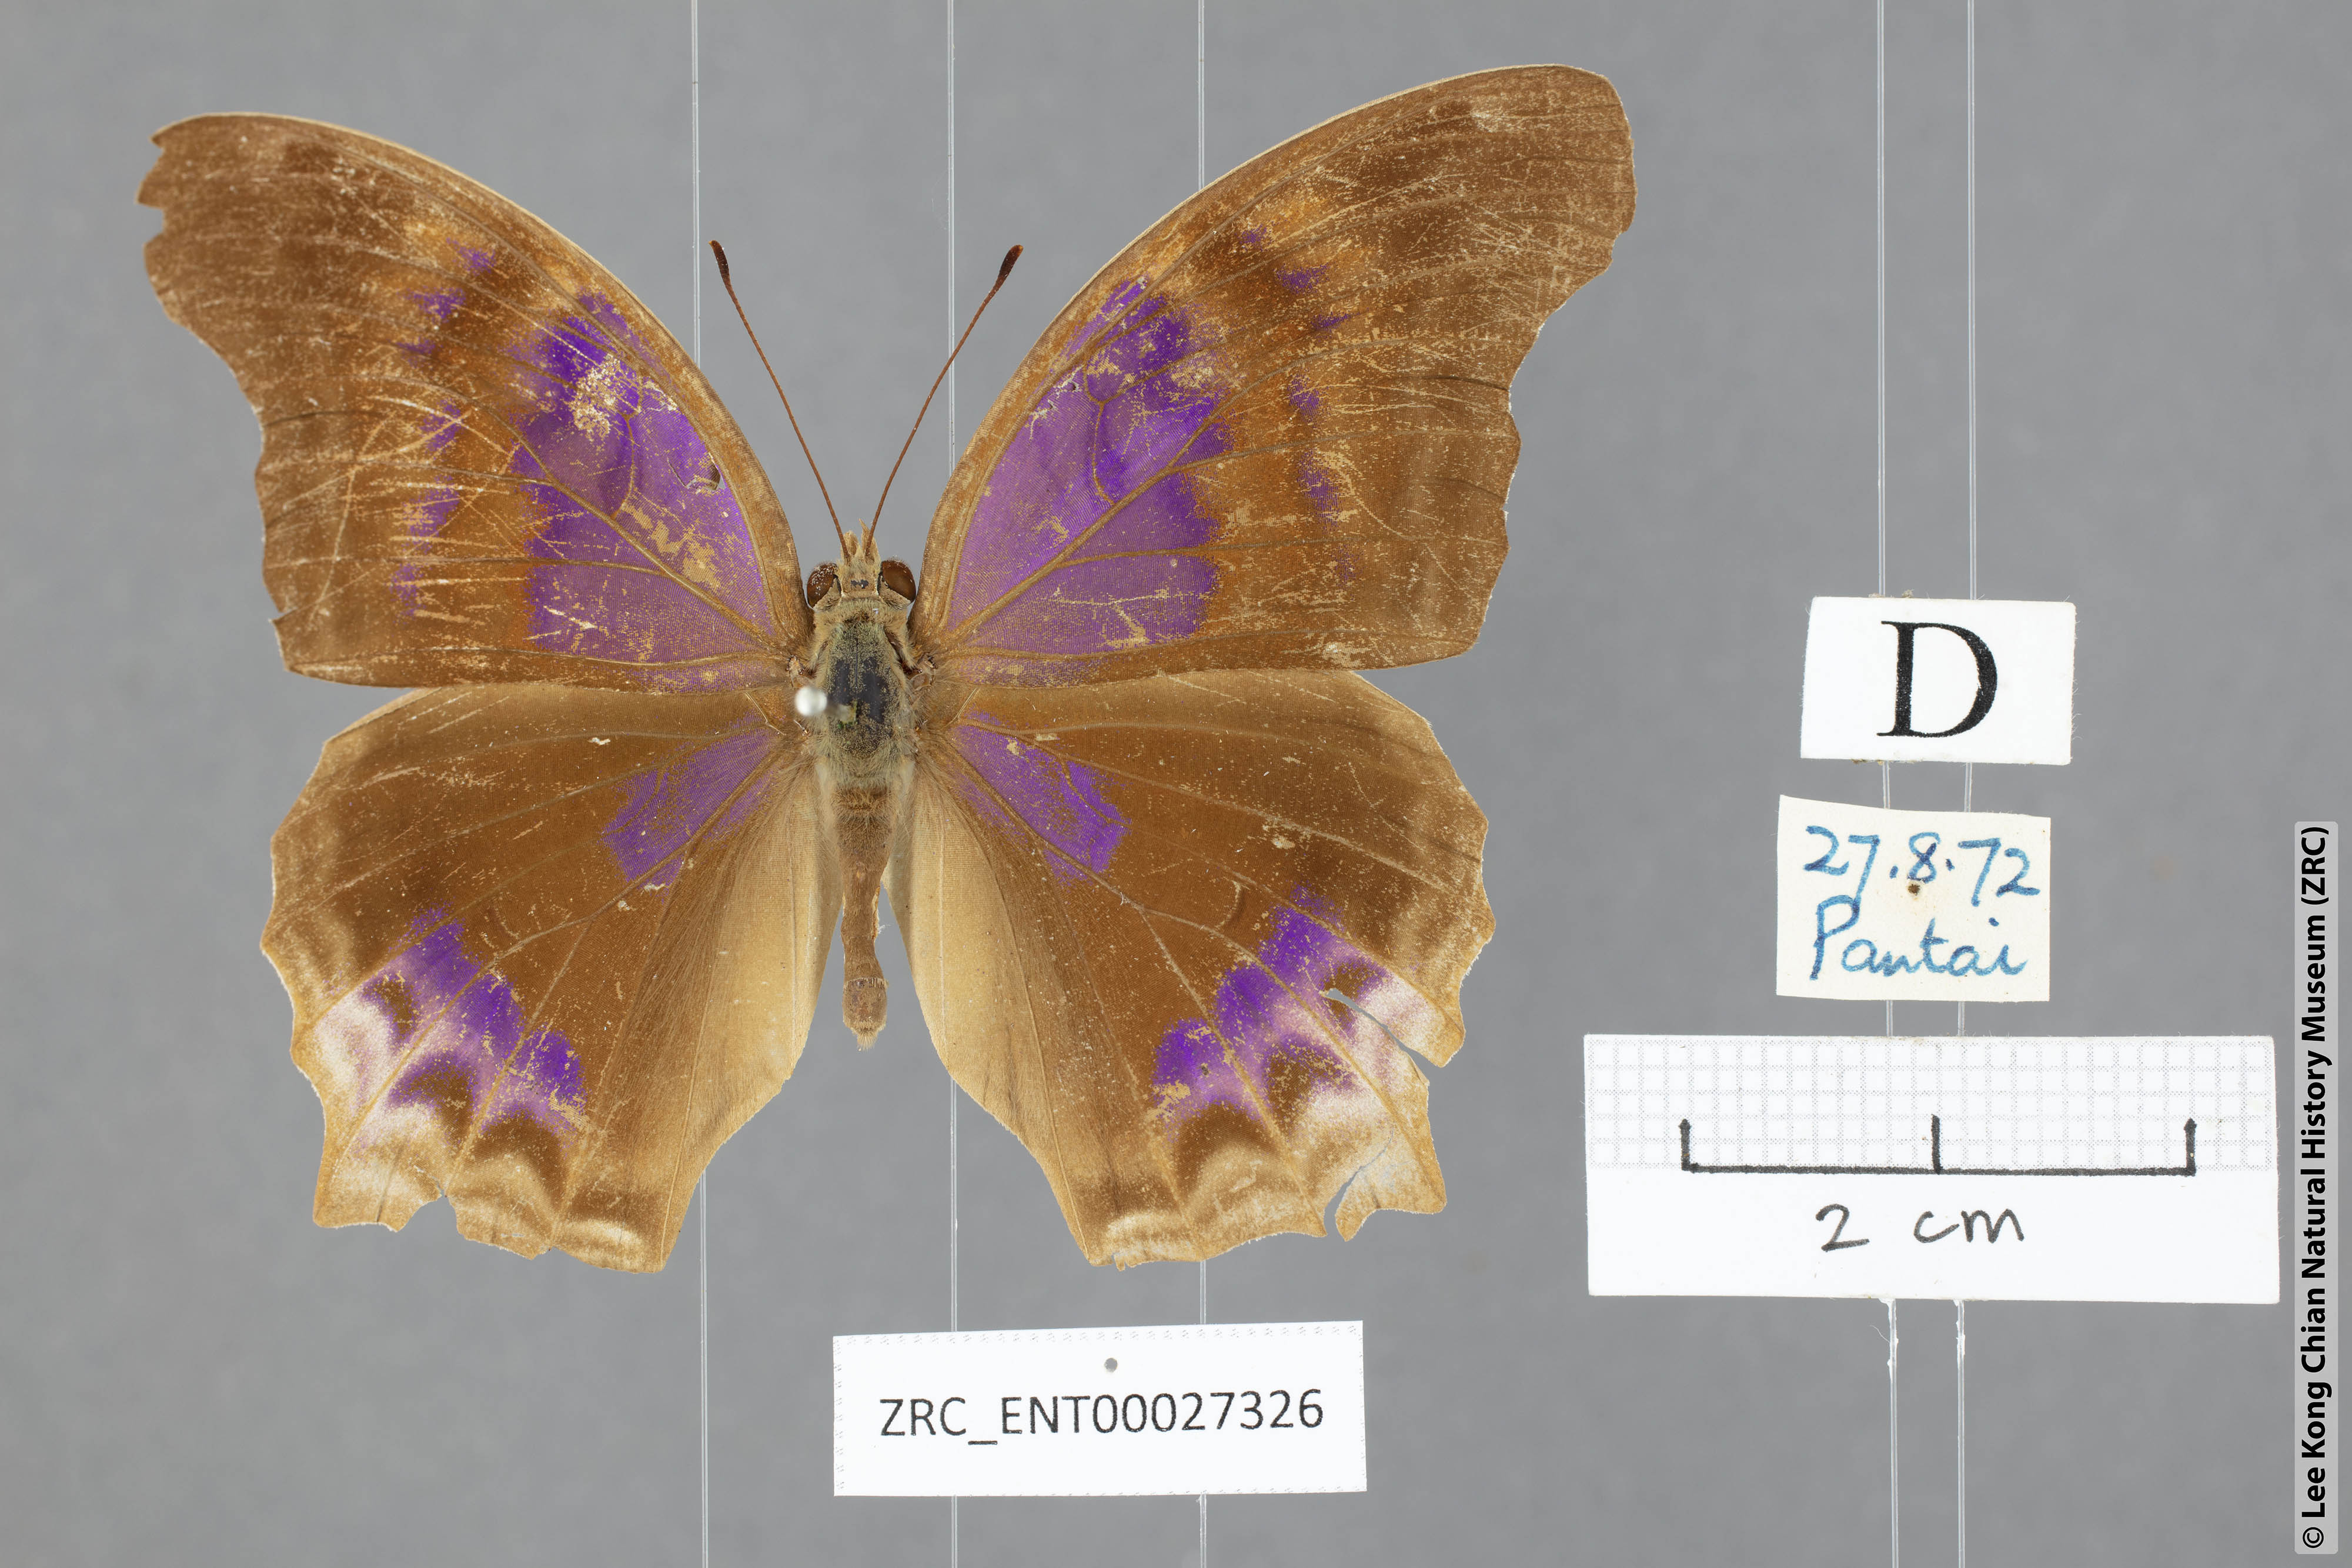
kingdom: Animalia
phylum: Arthropoda
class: Insecta
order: Lepidoptera
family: Nymphalidae
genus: Terinos
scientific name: Terinos clarissa
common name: Malayan assyrian
